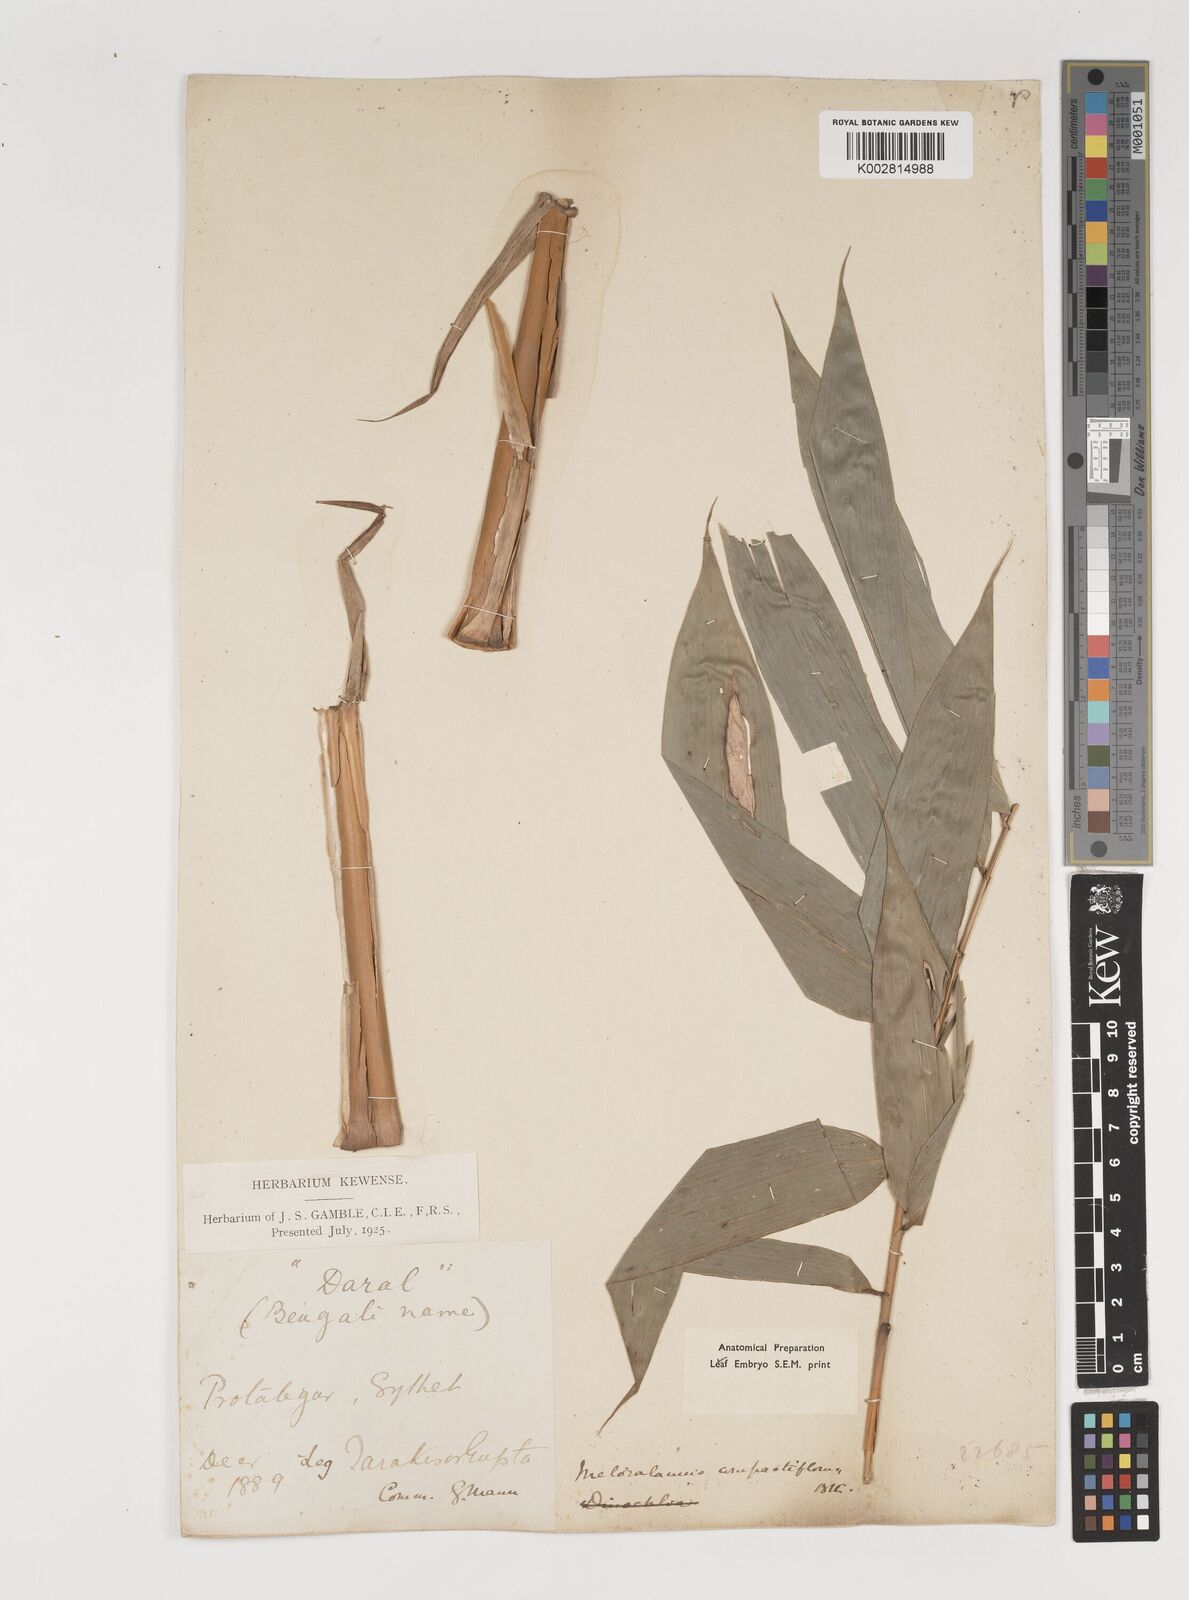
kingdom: Plantae
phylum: Tracheophyta
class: Liliopsida
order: Poales
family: Poaceae
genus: Melocalamus
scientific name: Melocalamus compactiflorus
